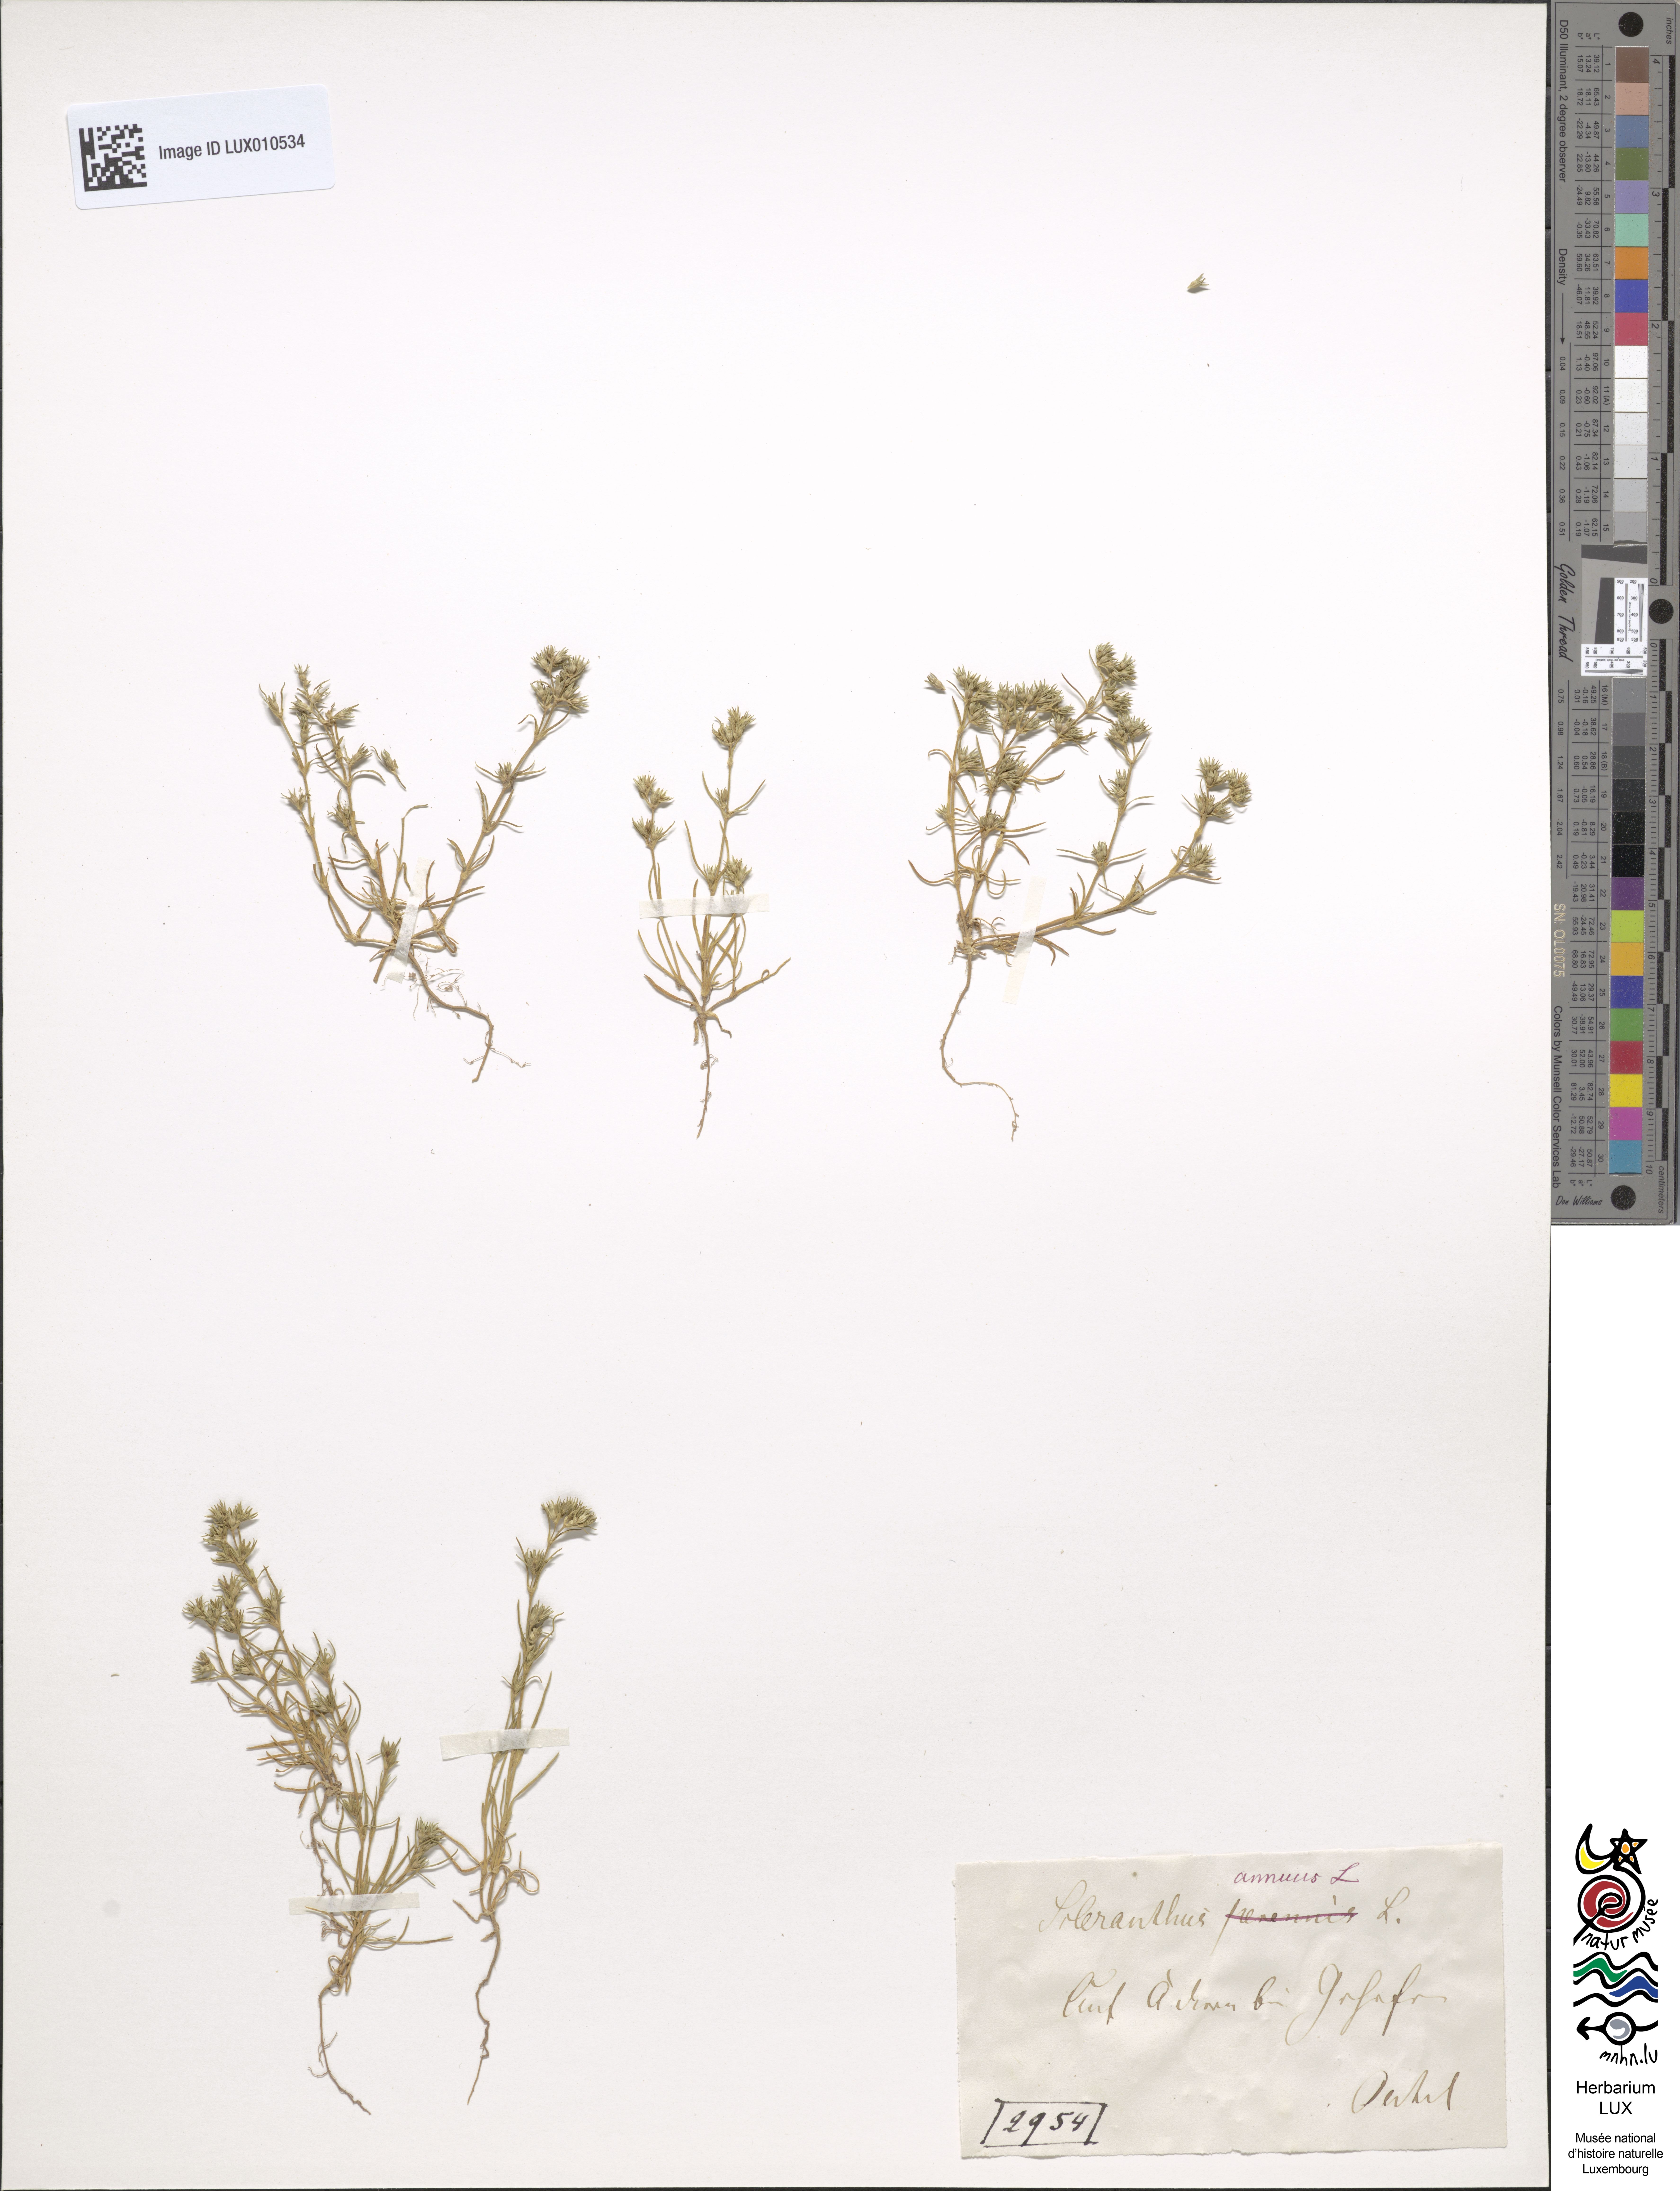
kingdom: Plantae
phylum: Tracheophyta
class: Magnoliopsida
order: Caryophyllales
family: Caryophyllaceae
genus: Scleranthus
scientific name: Scleranthus annuus
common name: Annual knawel
